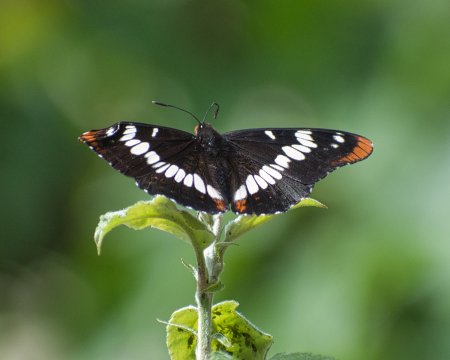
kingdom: Animalia
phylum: Arthropoda
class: Insecta
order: Lepidoptera
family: Nymphalidae
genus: Limenitis
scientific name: Limenitis lorquini
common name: Lorquin's Admiral
